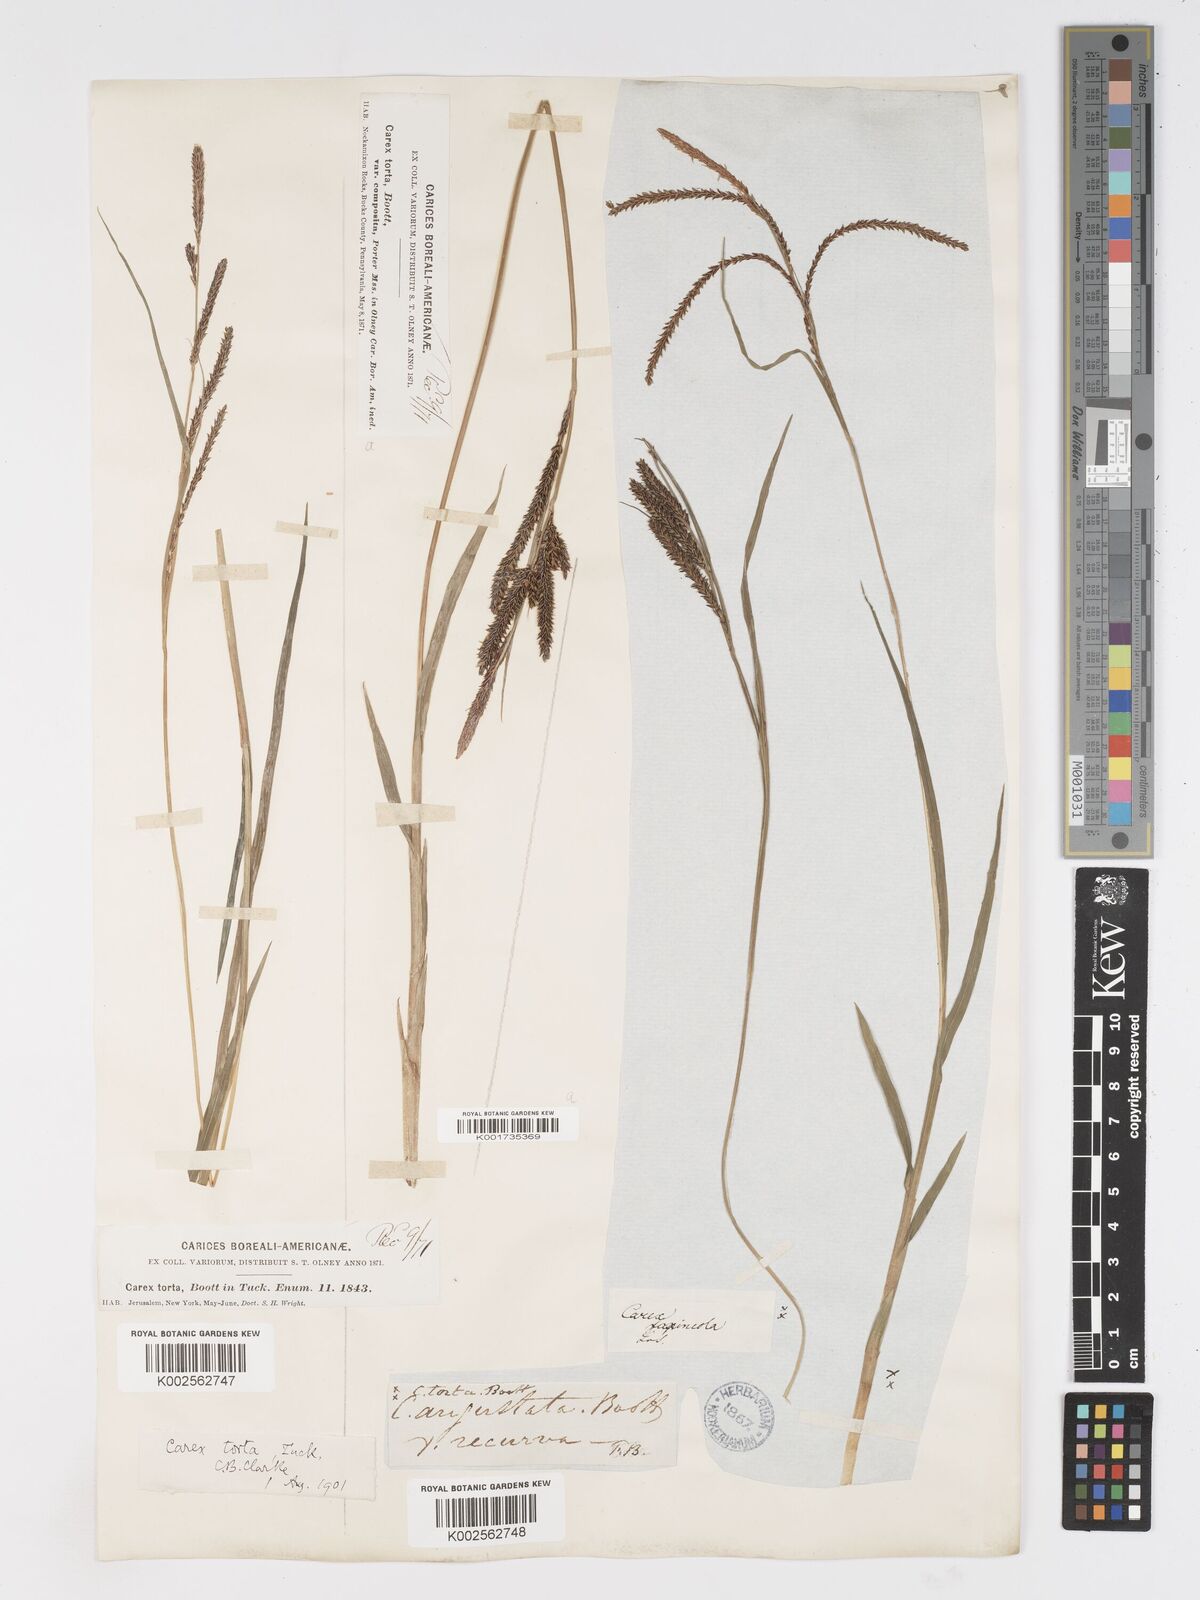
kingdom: Plantae
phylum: Tracheophyta
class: Liliopsida
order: Poales
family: Cyperaceae
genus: Carex
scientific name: Carex torta
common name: Twisted sedge
